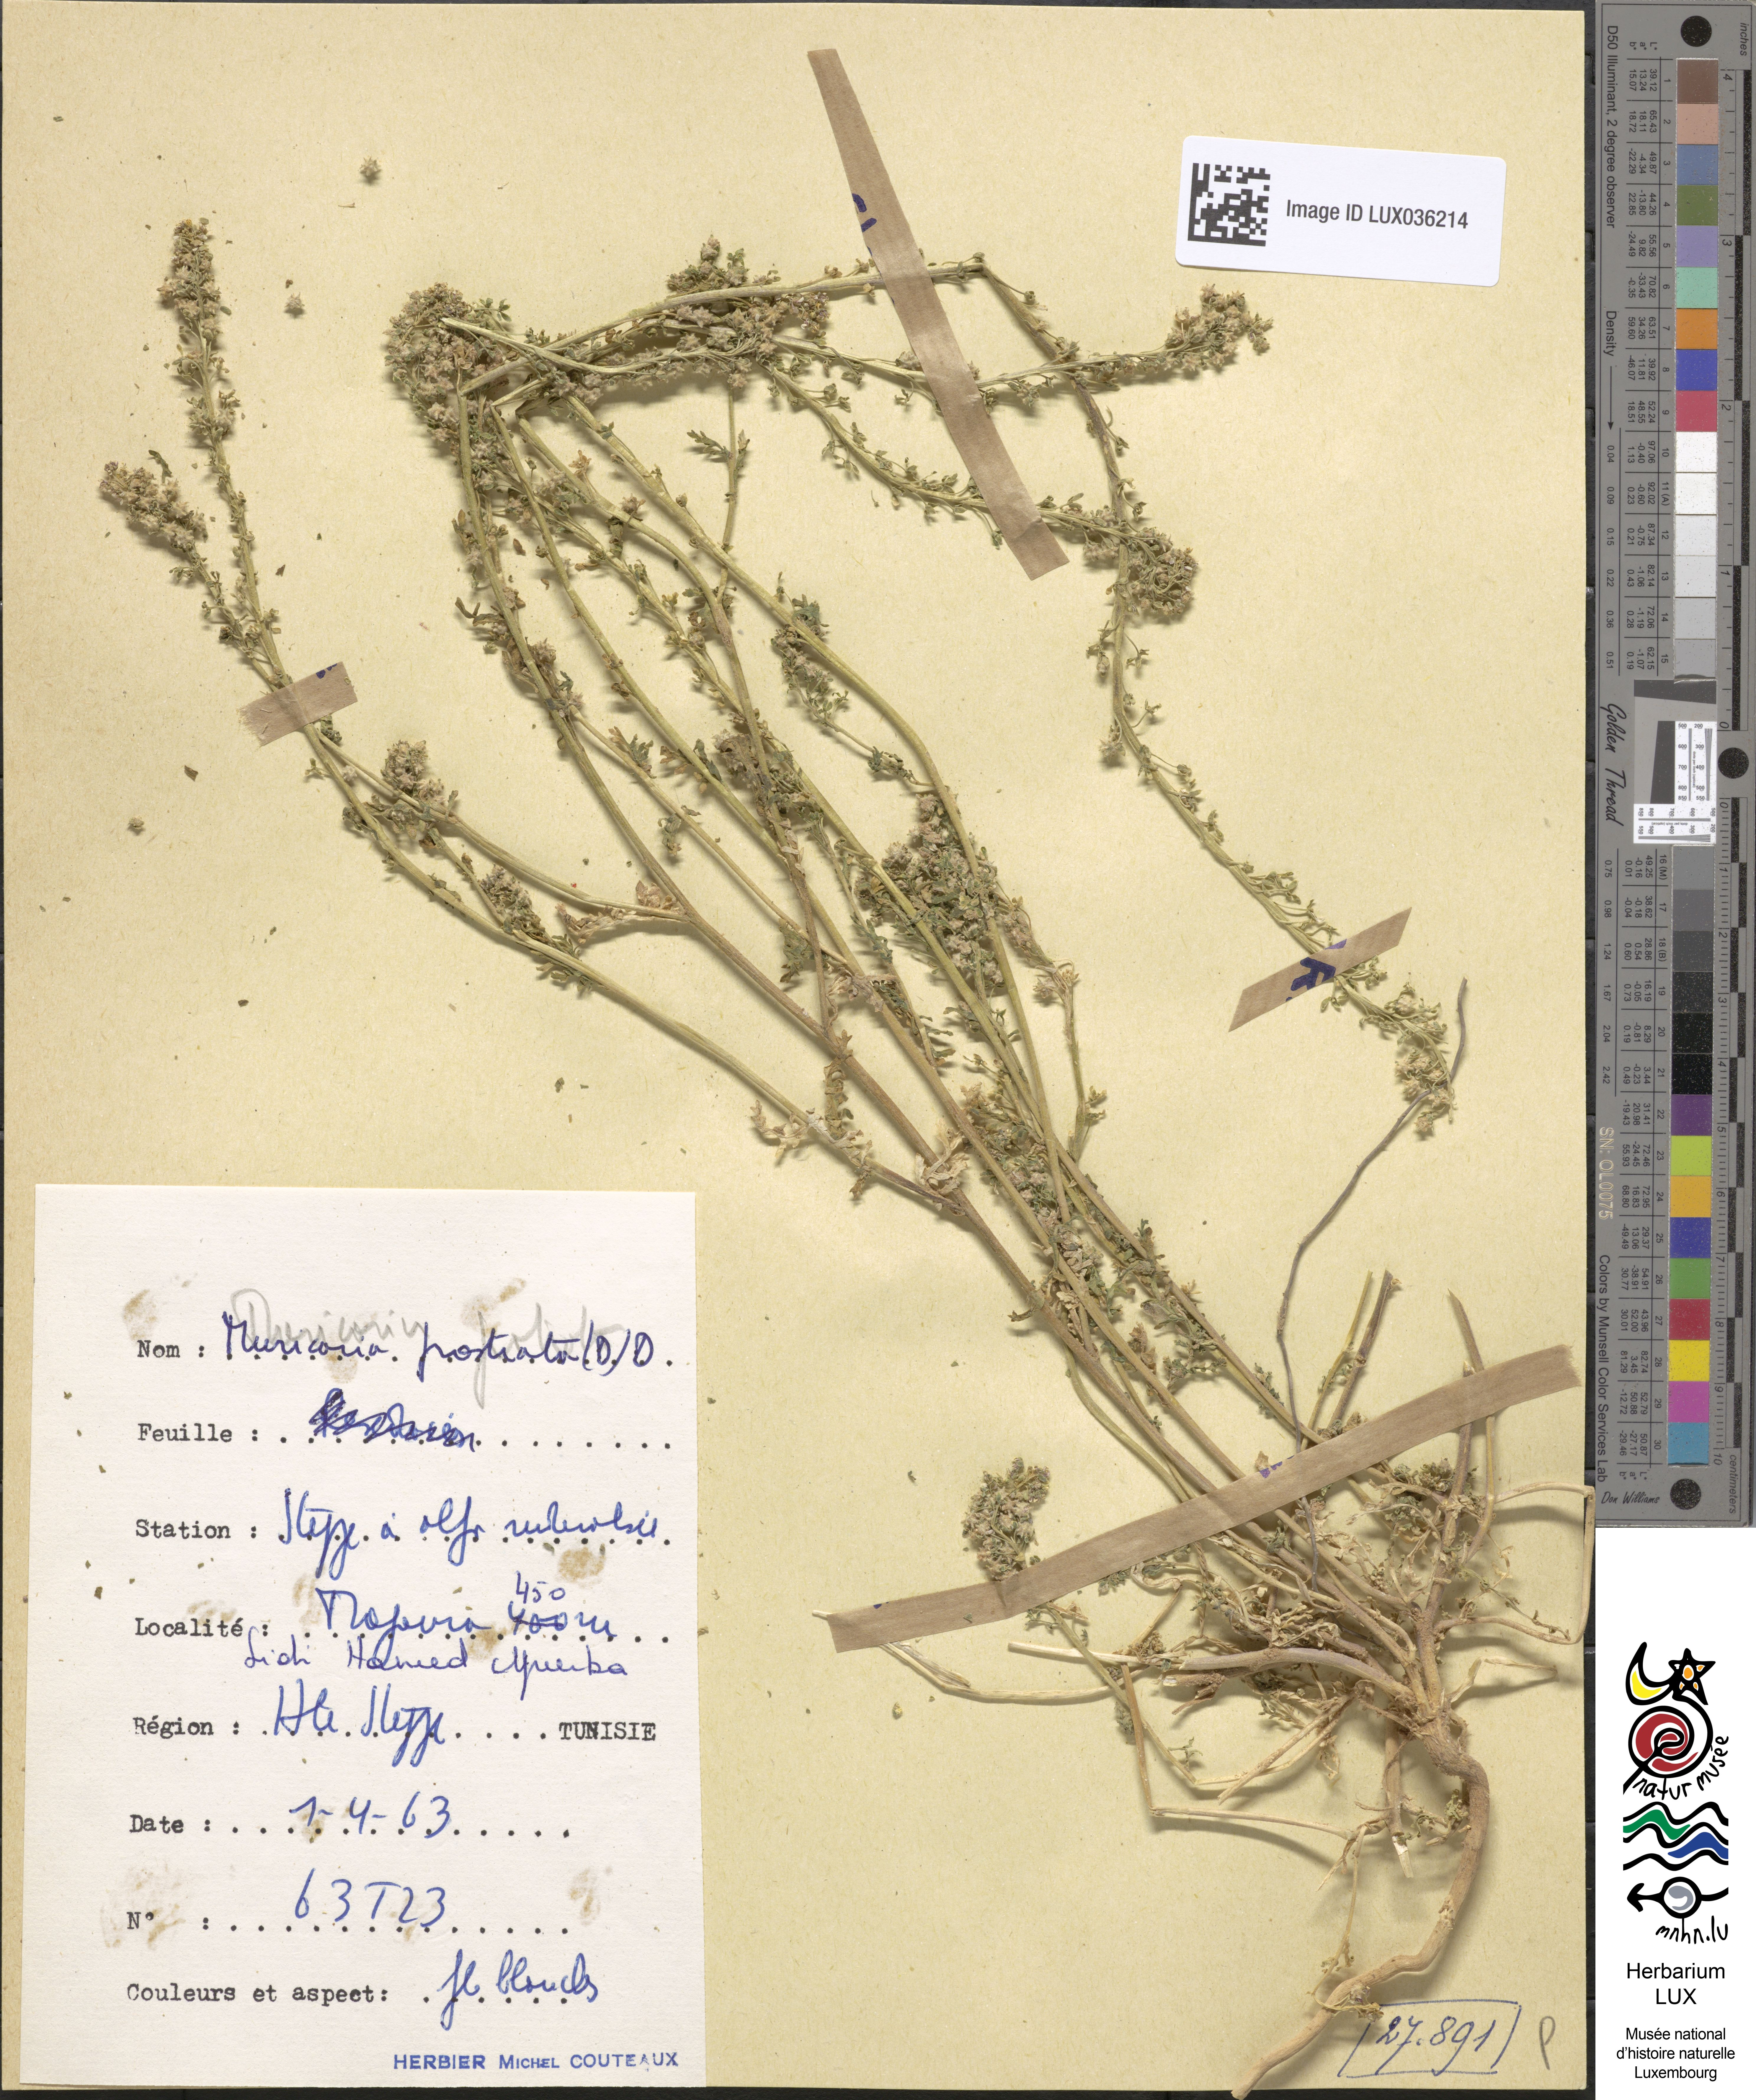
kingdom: Plantae
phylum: Tracheophyta
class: Magnoliopsida
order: Brassicales
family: Brassicaceae
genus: Muricaria
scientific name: Muricaria prostrata
